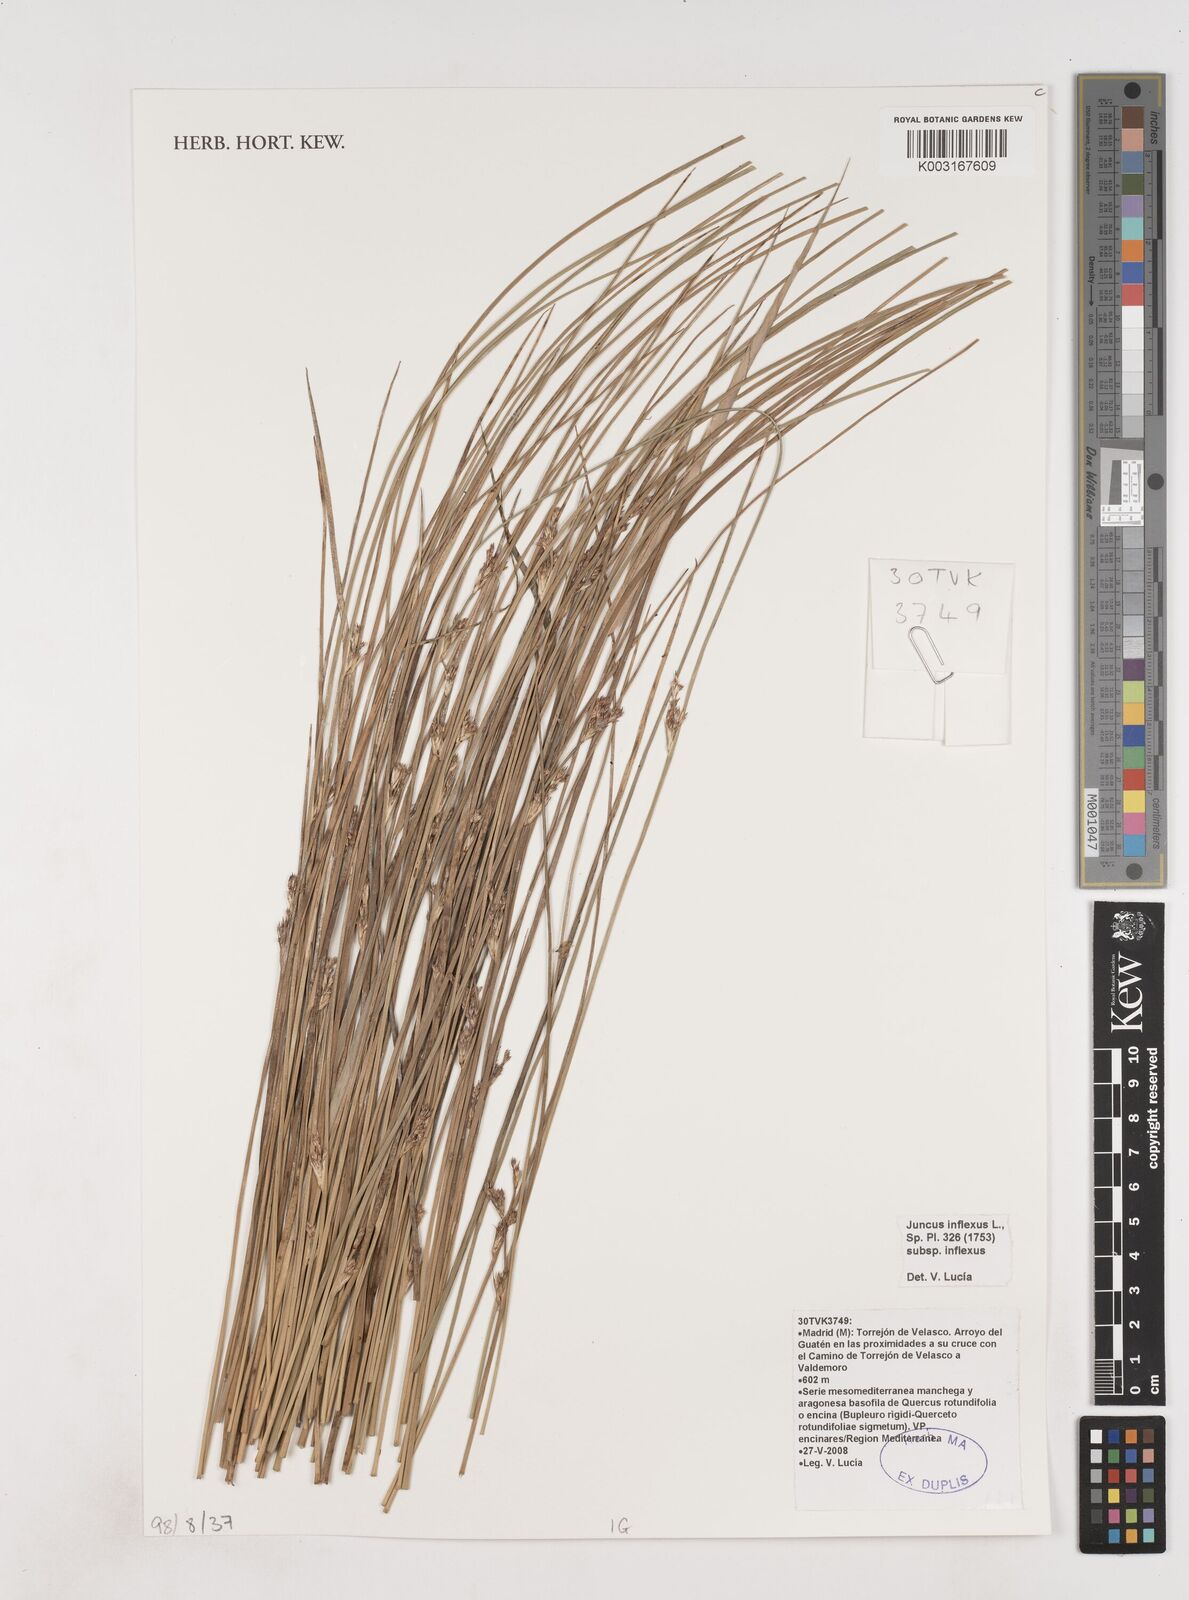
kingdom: Plantae
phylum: Tracheophyta
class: Liliopsida
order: Poales
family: Juncaceae
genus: Juncus
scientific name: Juncus inflexus
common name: Hard rush
